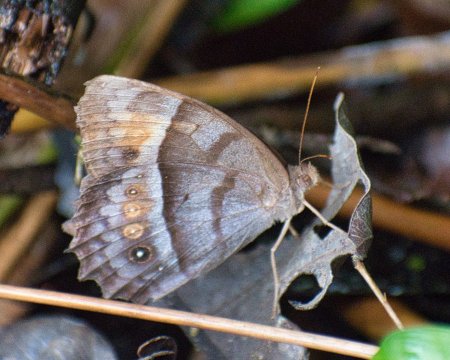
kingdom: Animalia
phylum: Arthropoda
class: Insecta
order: Lepidoptera
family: Nymphalidae
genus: Taygetis
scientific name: Taygetis thamyra
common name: Thamyra Satyr
